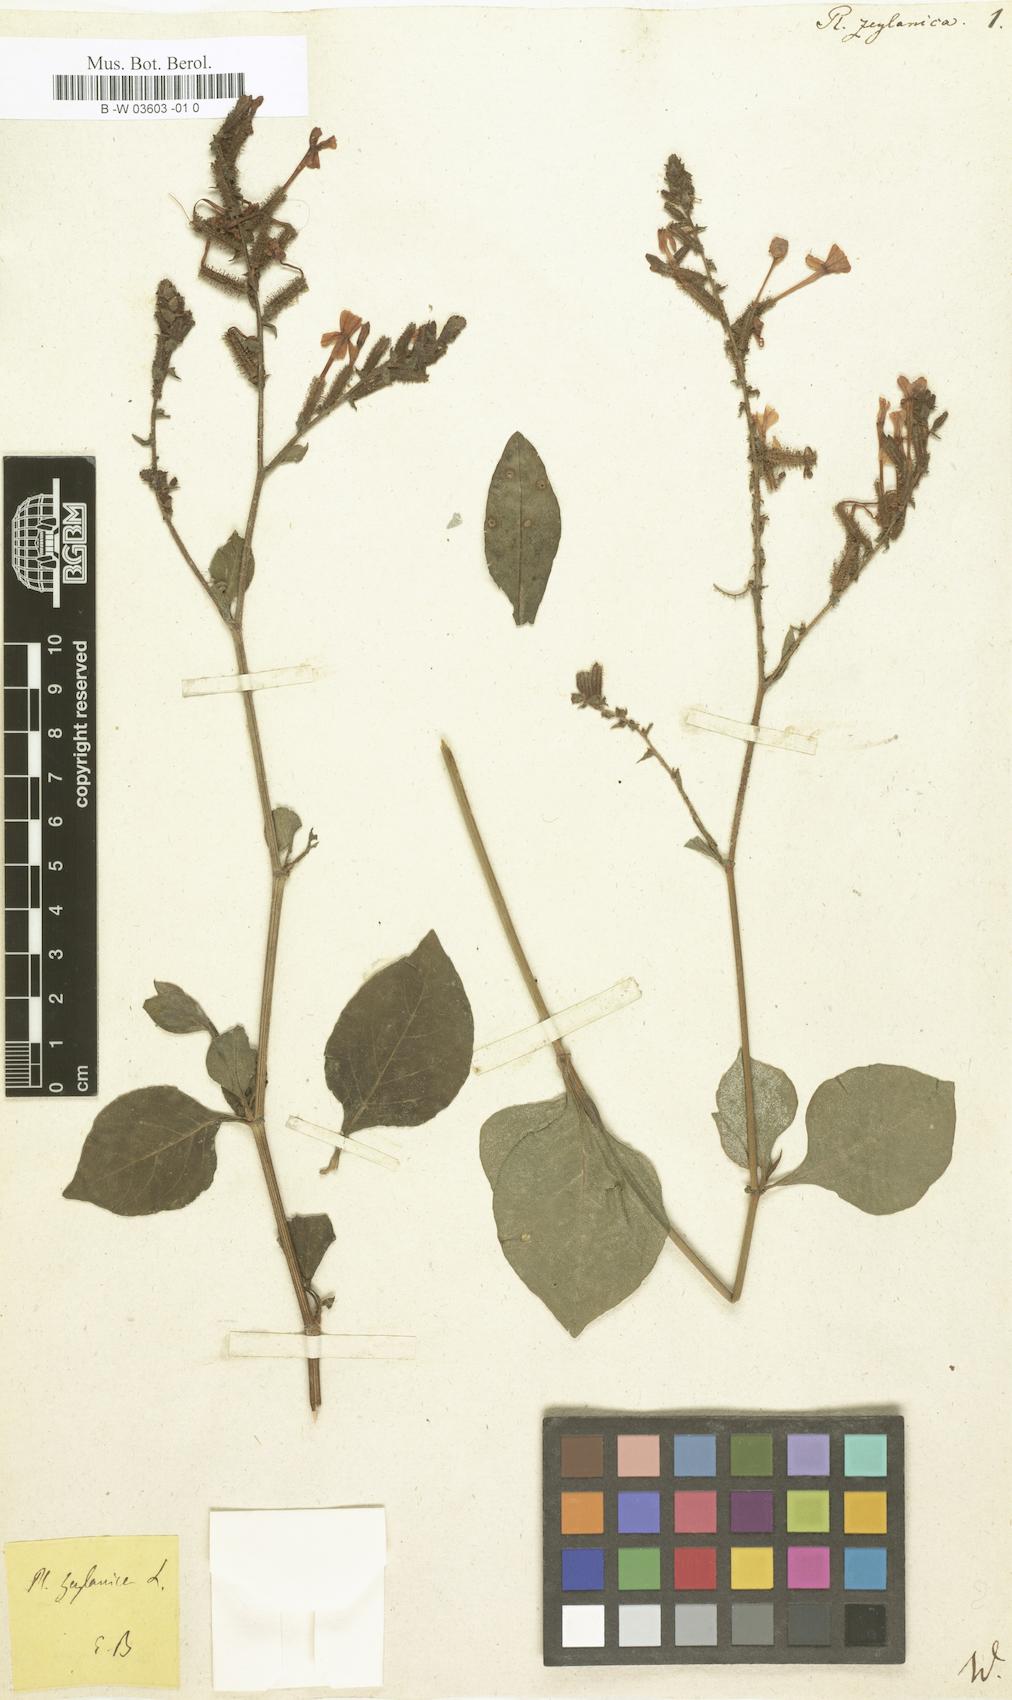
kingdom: Plantae
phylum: Tracheophyta
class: Magnoliopsida
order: Caryophyllales
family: Plumbaginaceae
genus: Plumbago
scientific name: Plumbago zeylanica
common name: Doctorbush
